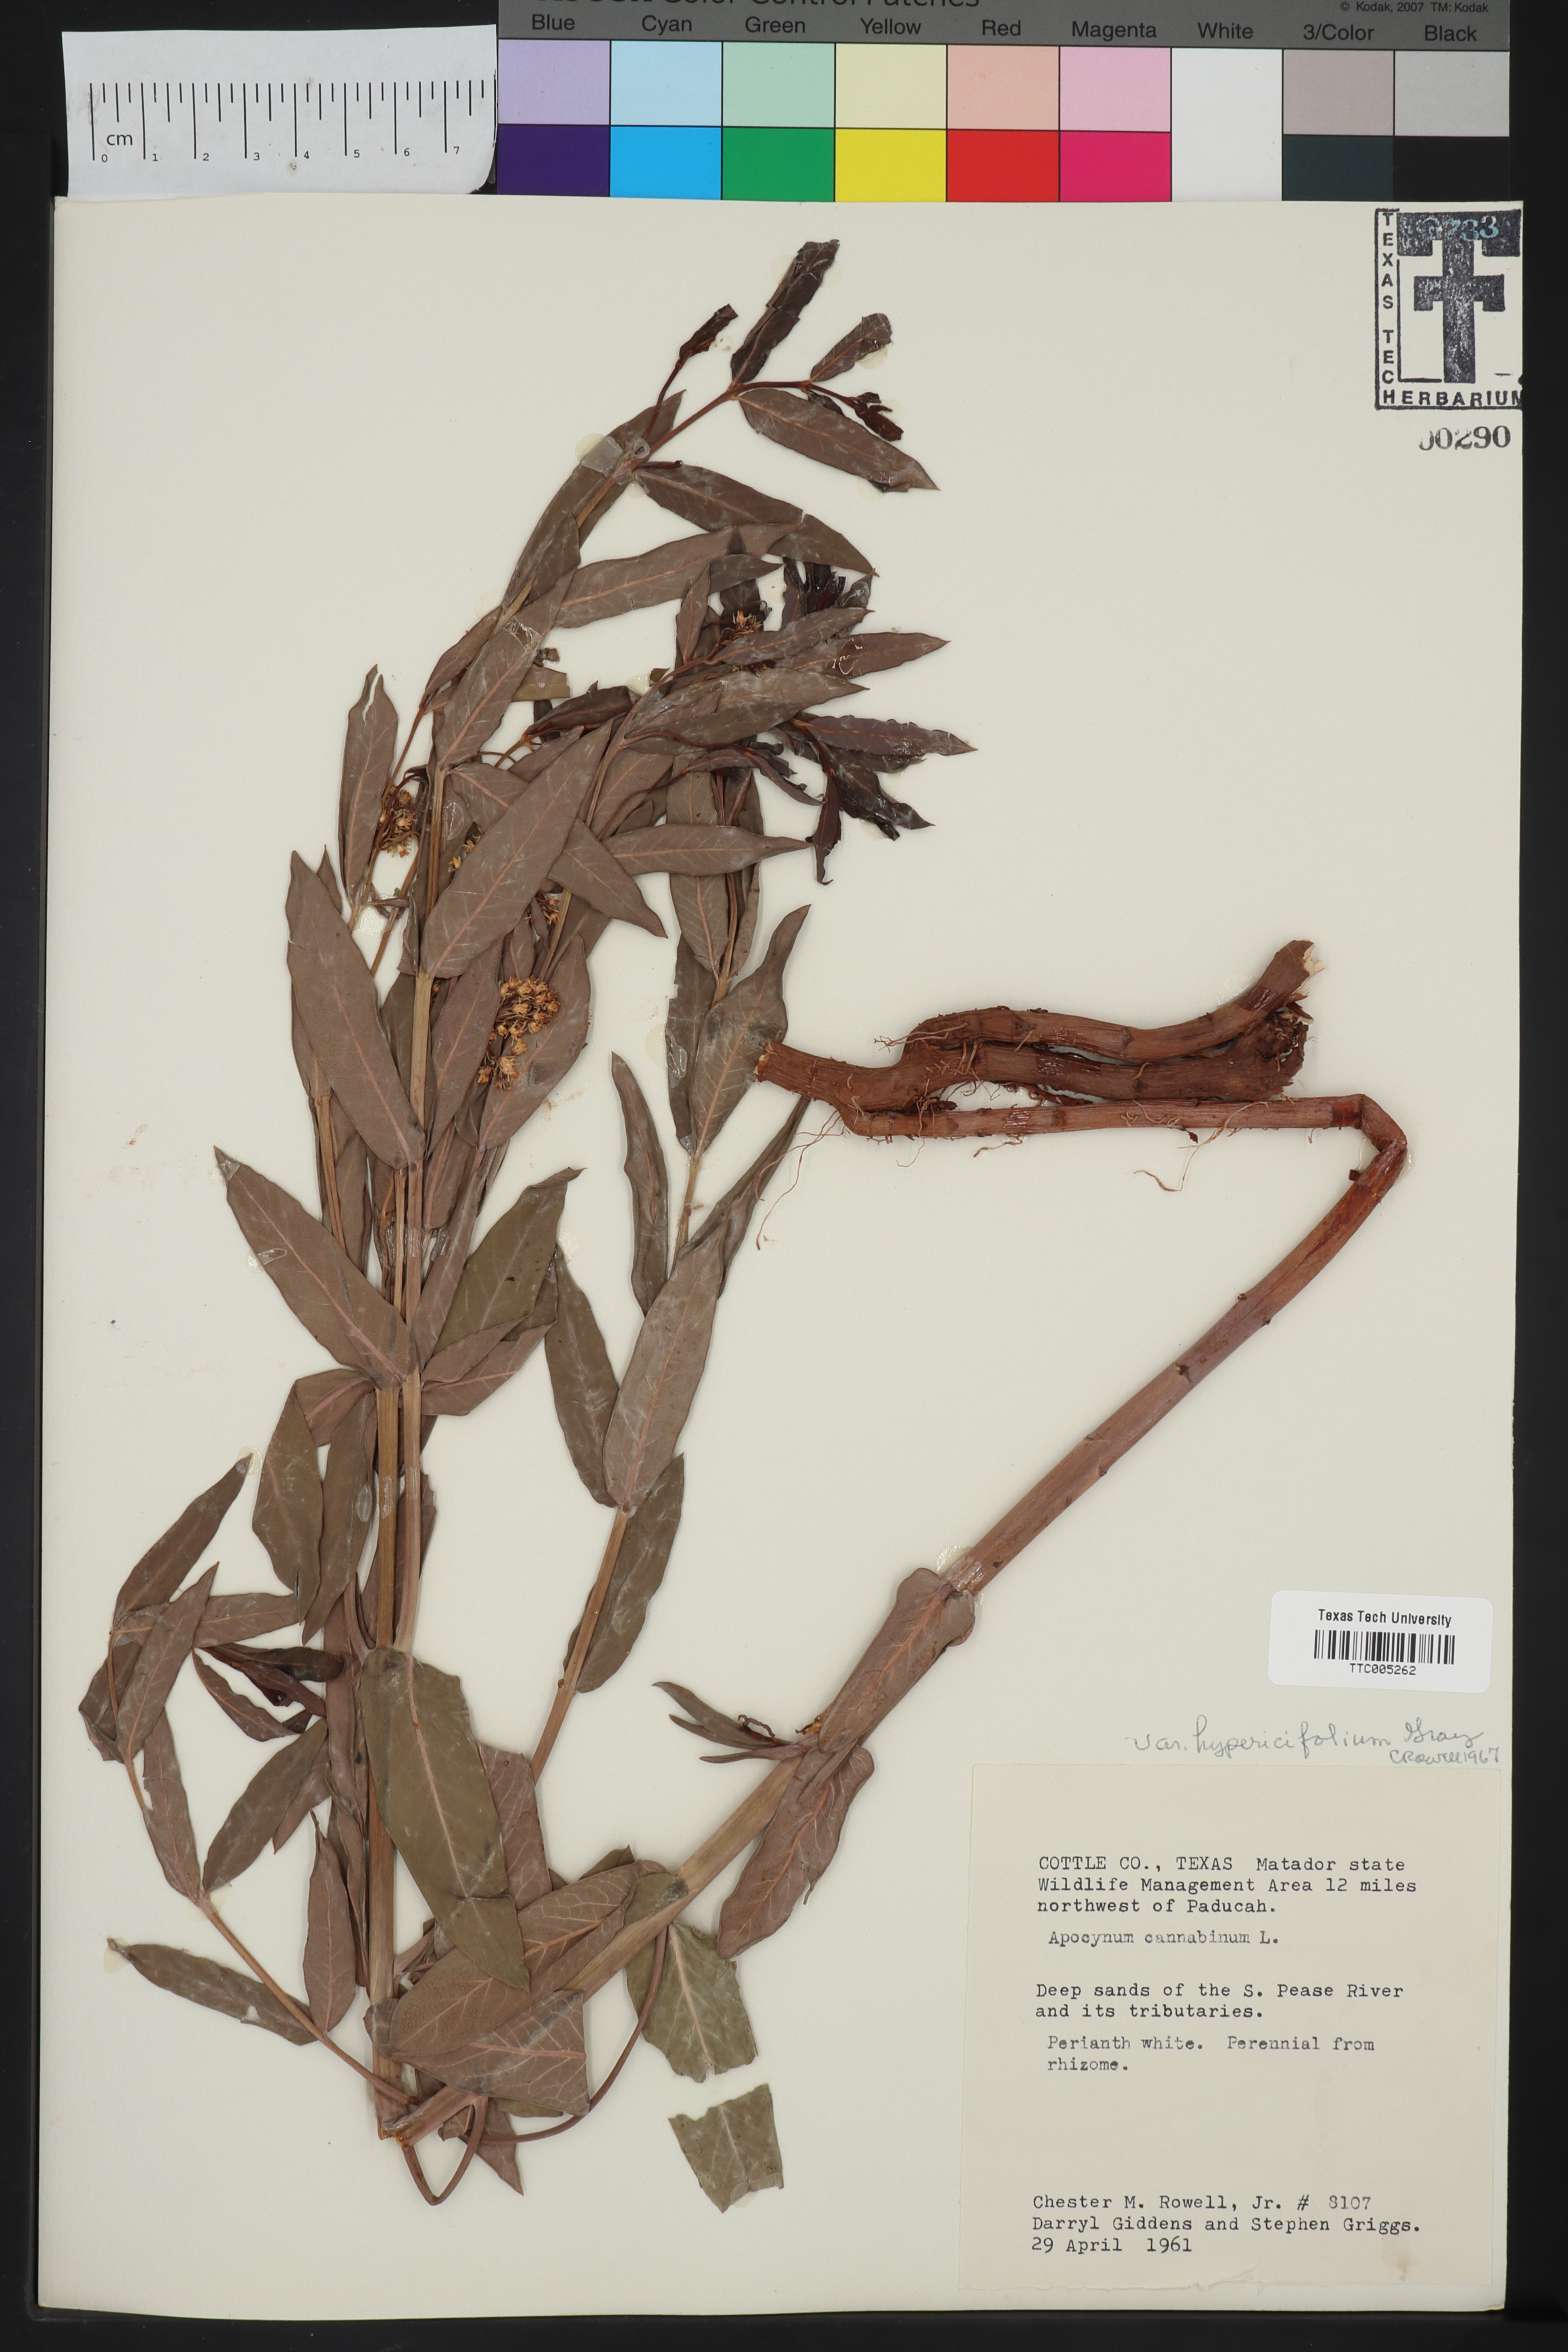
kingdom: Plantae
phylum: Tracheophyta
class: Magnoliopsida
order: Gentianales
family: Apocynaceae
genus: Apocynum
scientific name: Apocynum cannabinum
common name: Hemp dogbane
